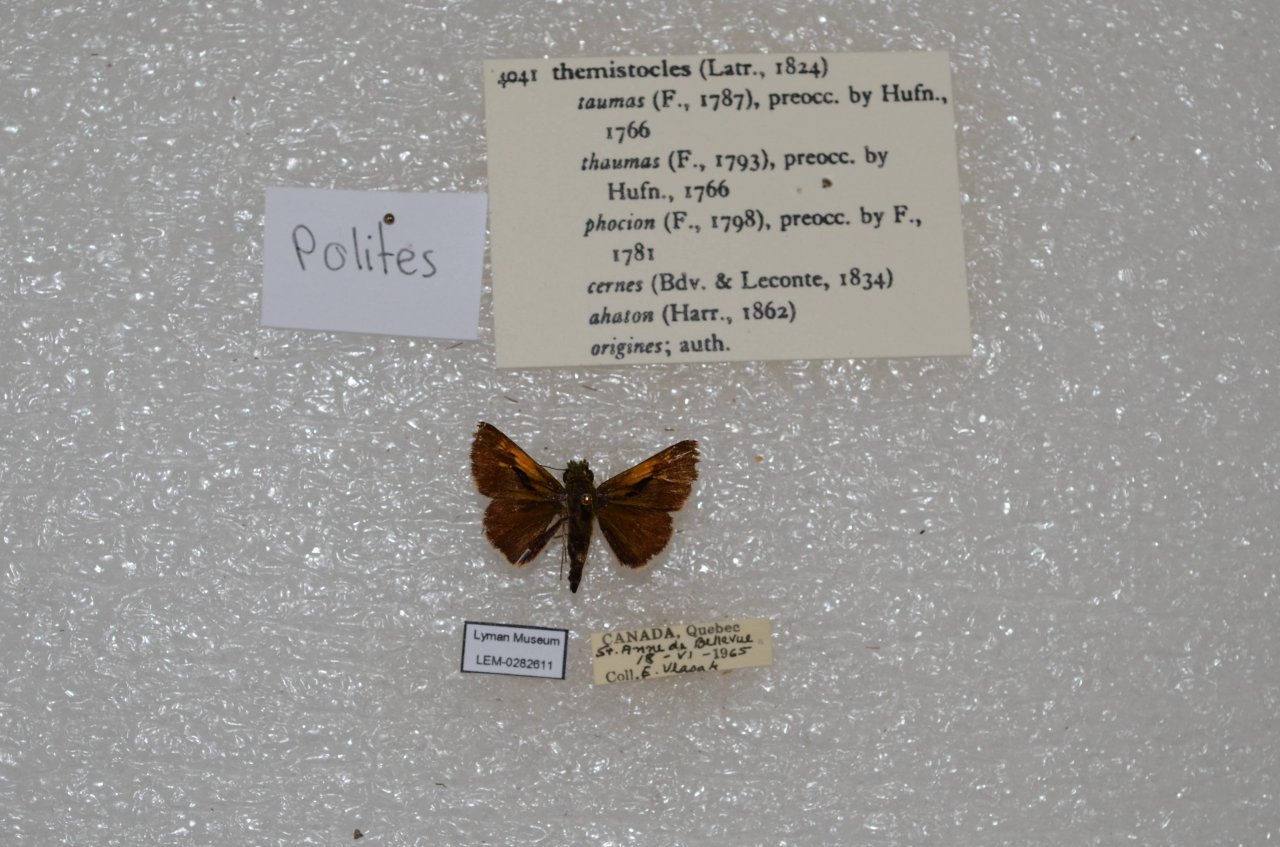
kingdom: Animalia
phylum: Arthropoda
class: Insecta
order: Lepidoptera
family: Hesperiidae
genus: Polites
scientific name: Polites themistocles
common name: Tawny-edged Skipper
